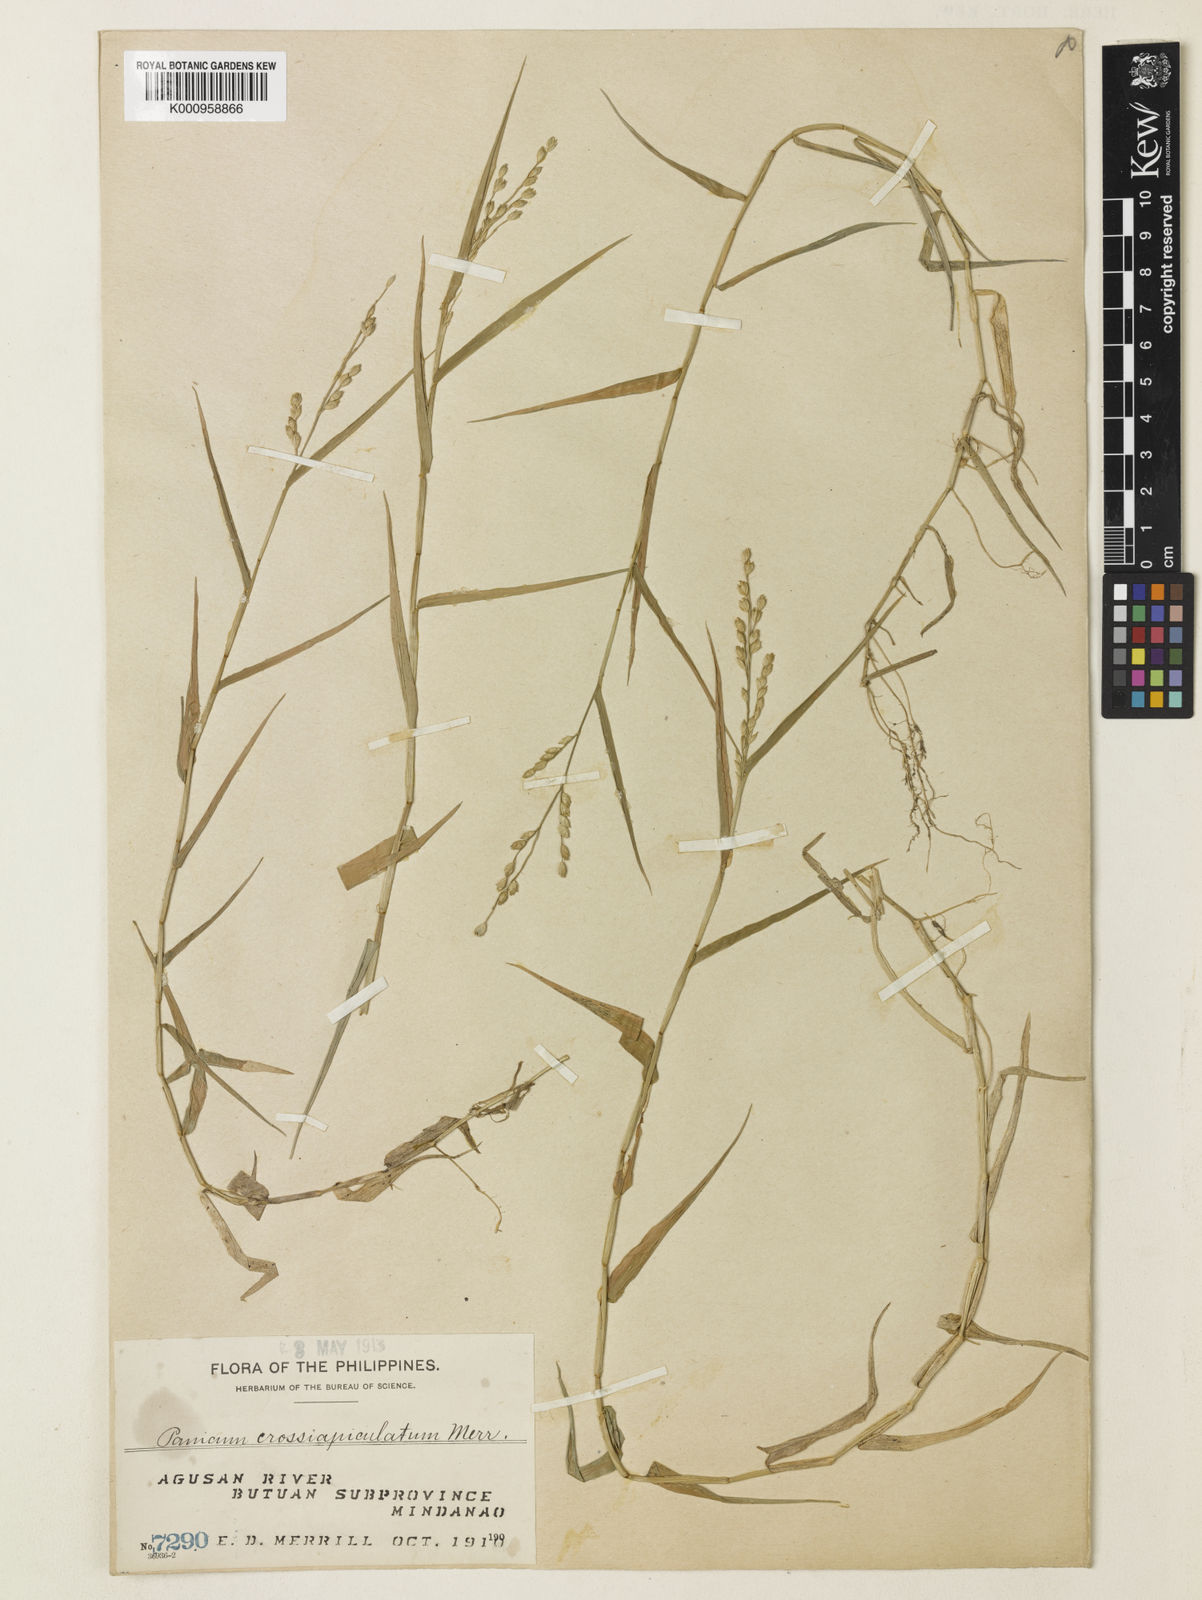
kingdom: Plantae
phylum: Tracheophyta
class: Liliopsida
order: Poales
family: Poaceae
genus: Acroceras
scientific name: Acroceras munroanum
